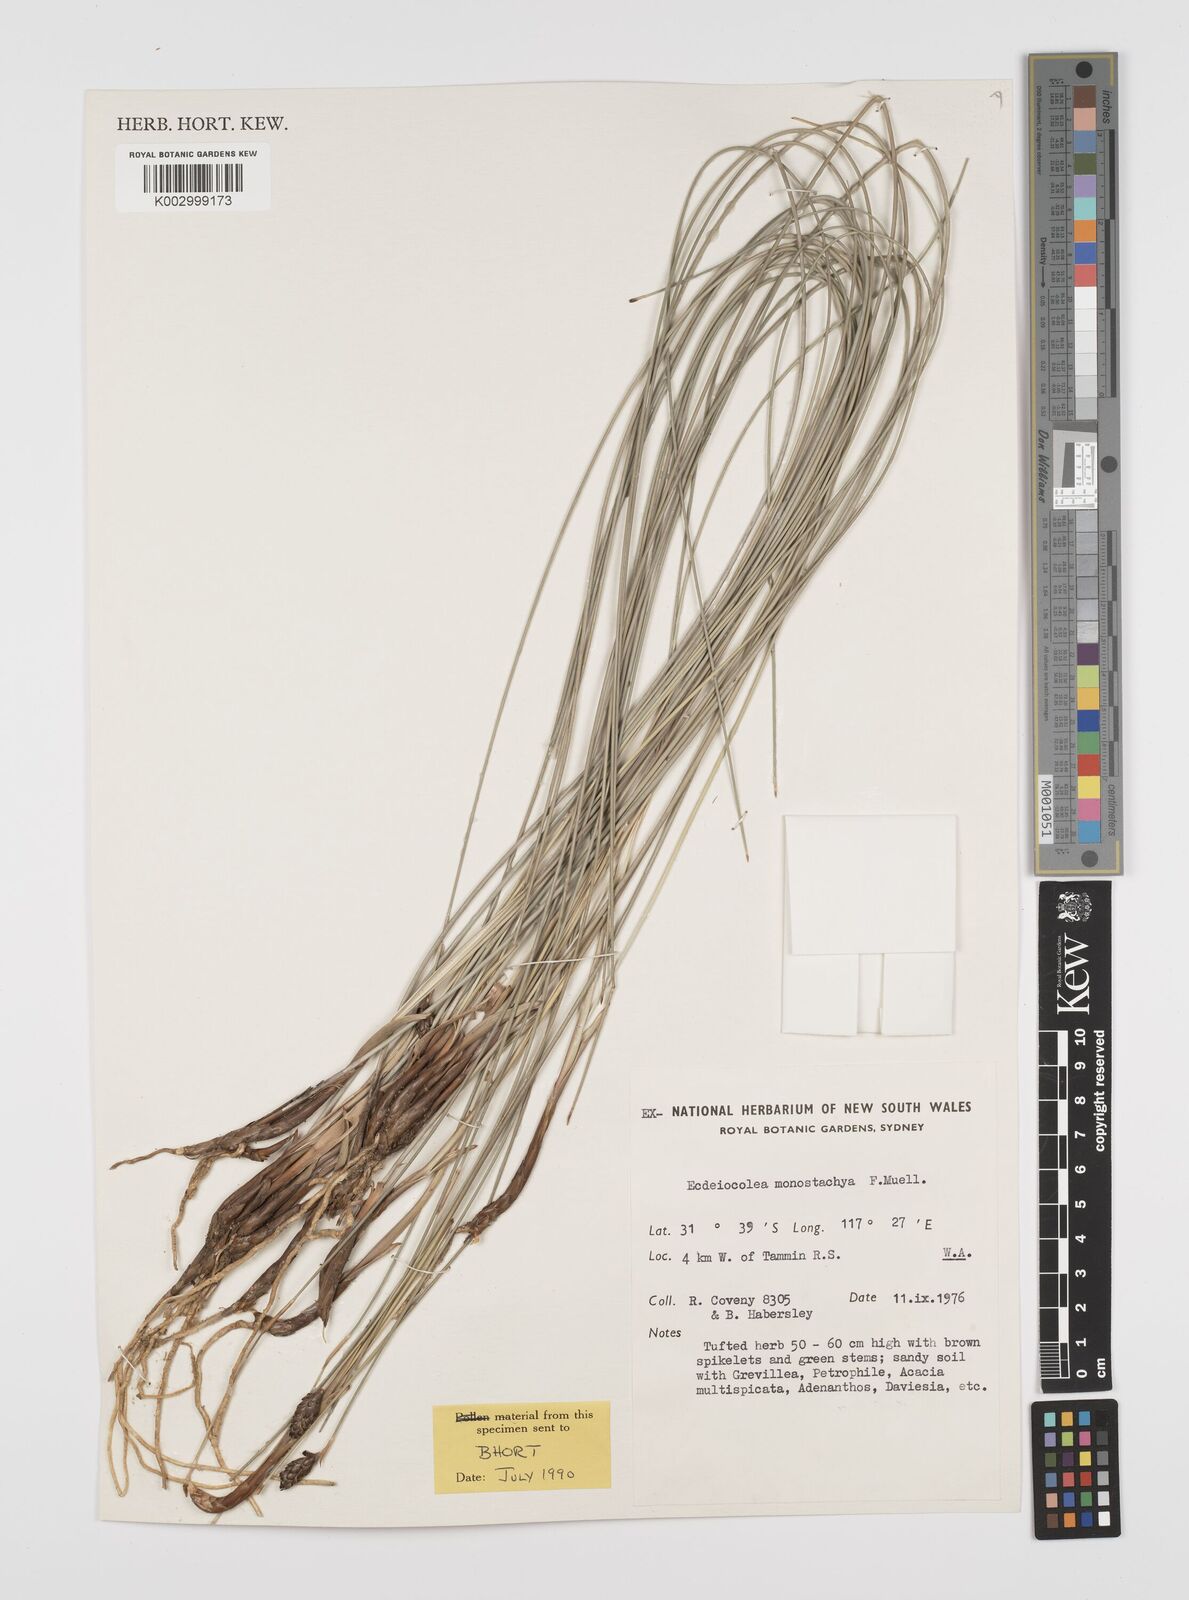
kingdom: Plantae
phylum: Tracheophyta
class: Liliopsida
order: Poales
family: Ecdeiocoleaceae
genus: Ecdeiocolea
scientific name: Ecdeiocolea monostachya
